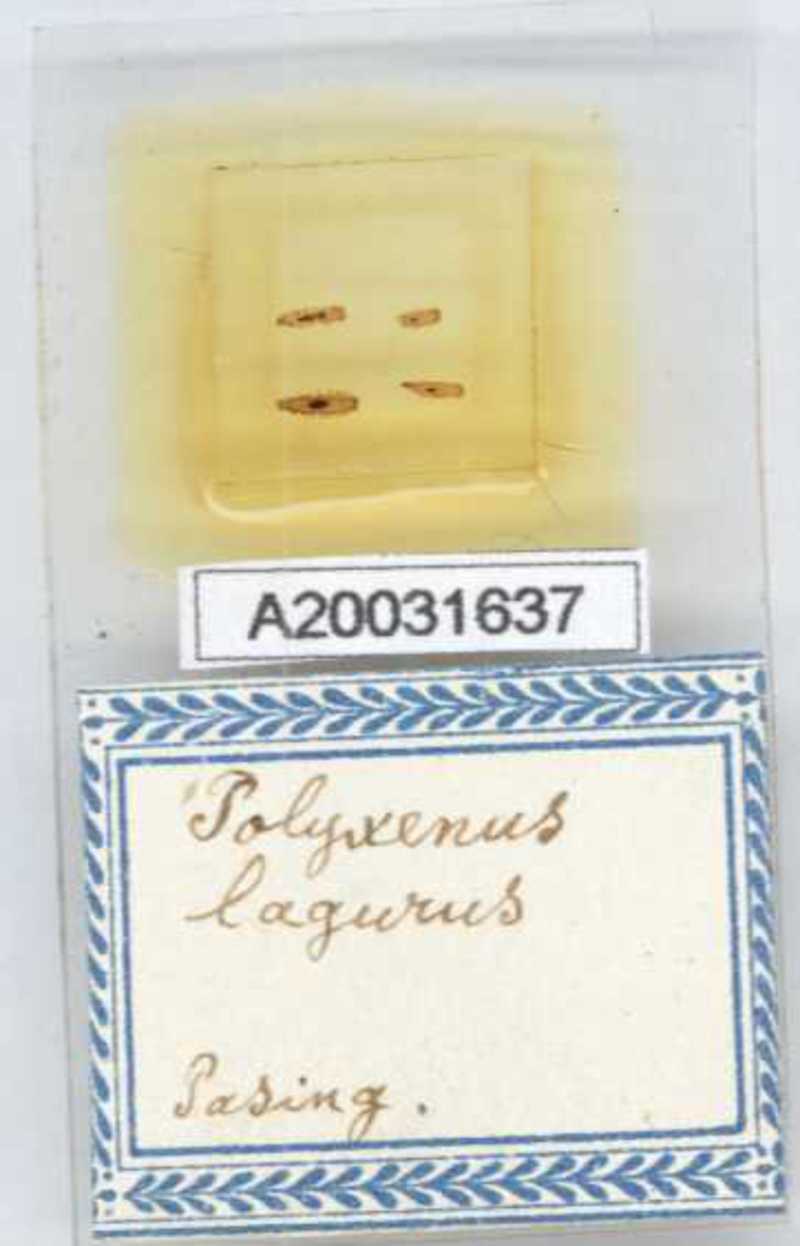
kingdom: Animalia
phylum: Arthropoda
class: Diplopoda
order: Polyxenida
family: Polyxenidae
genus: Polyxenus
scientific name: Polyxenus lagurus
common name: Bristly millipede
